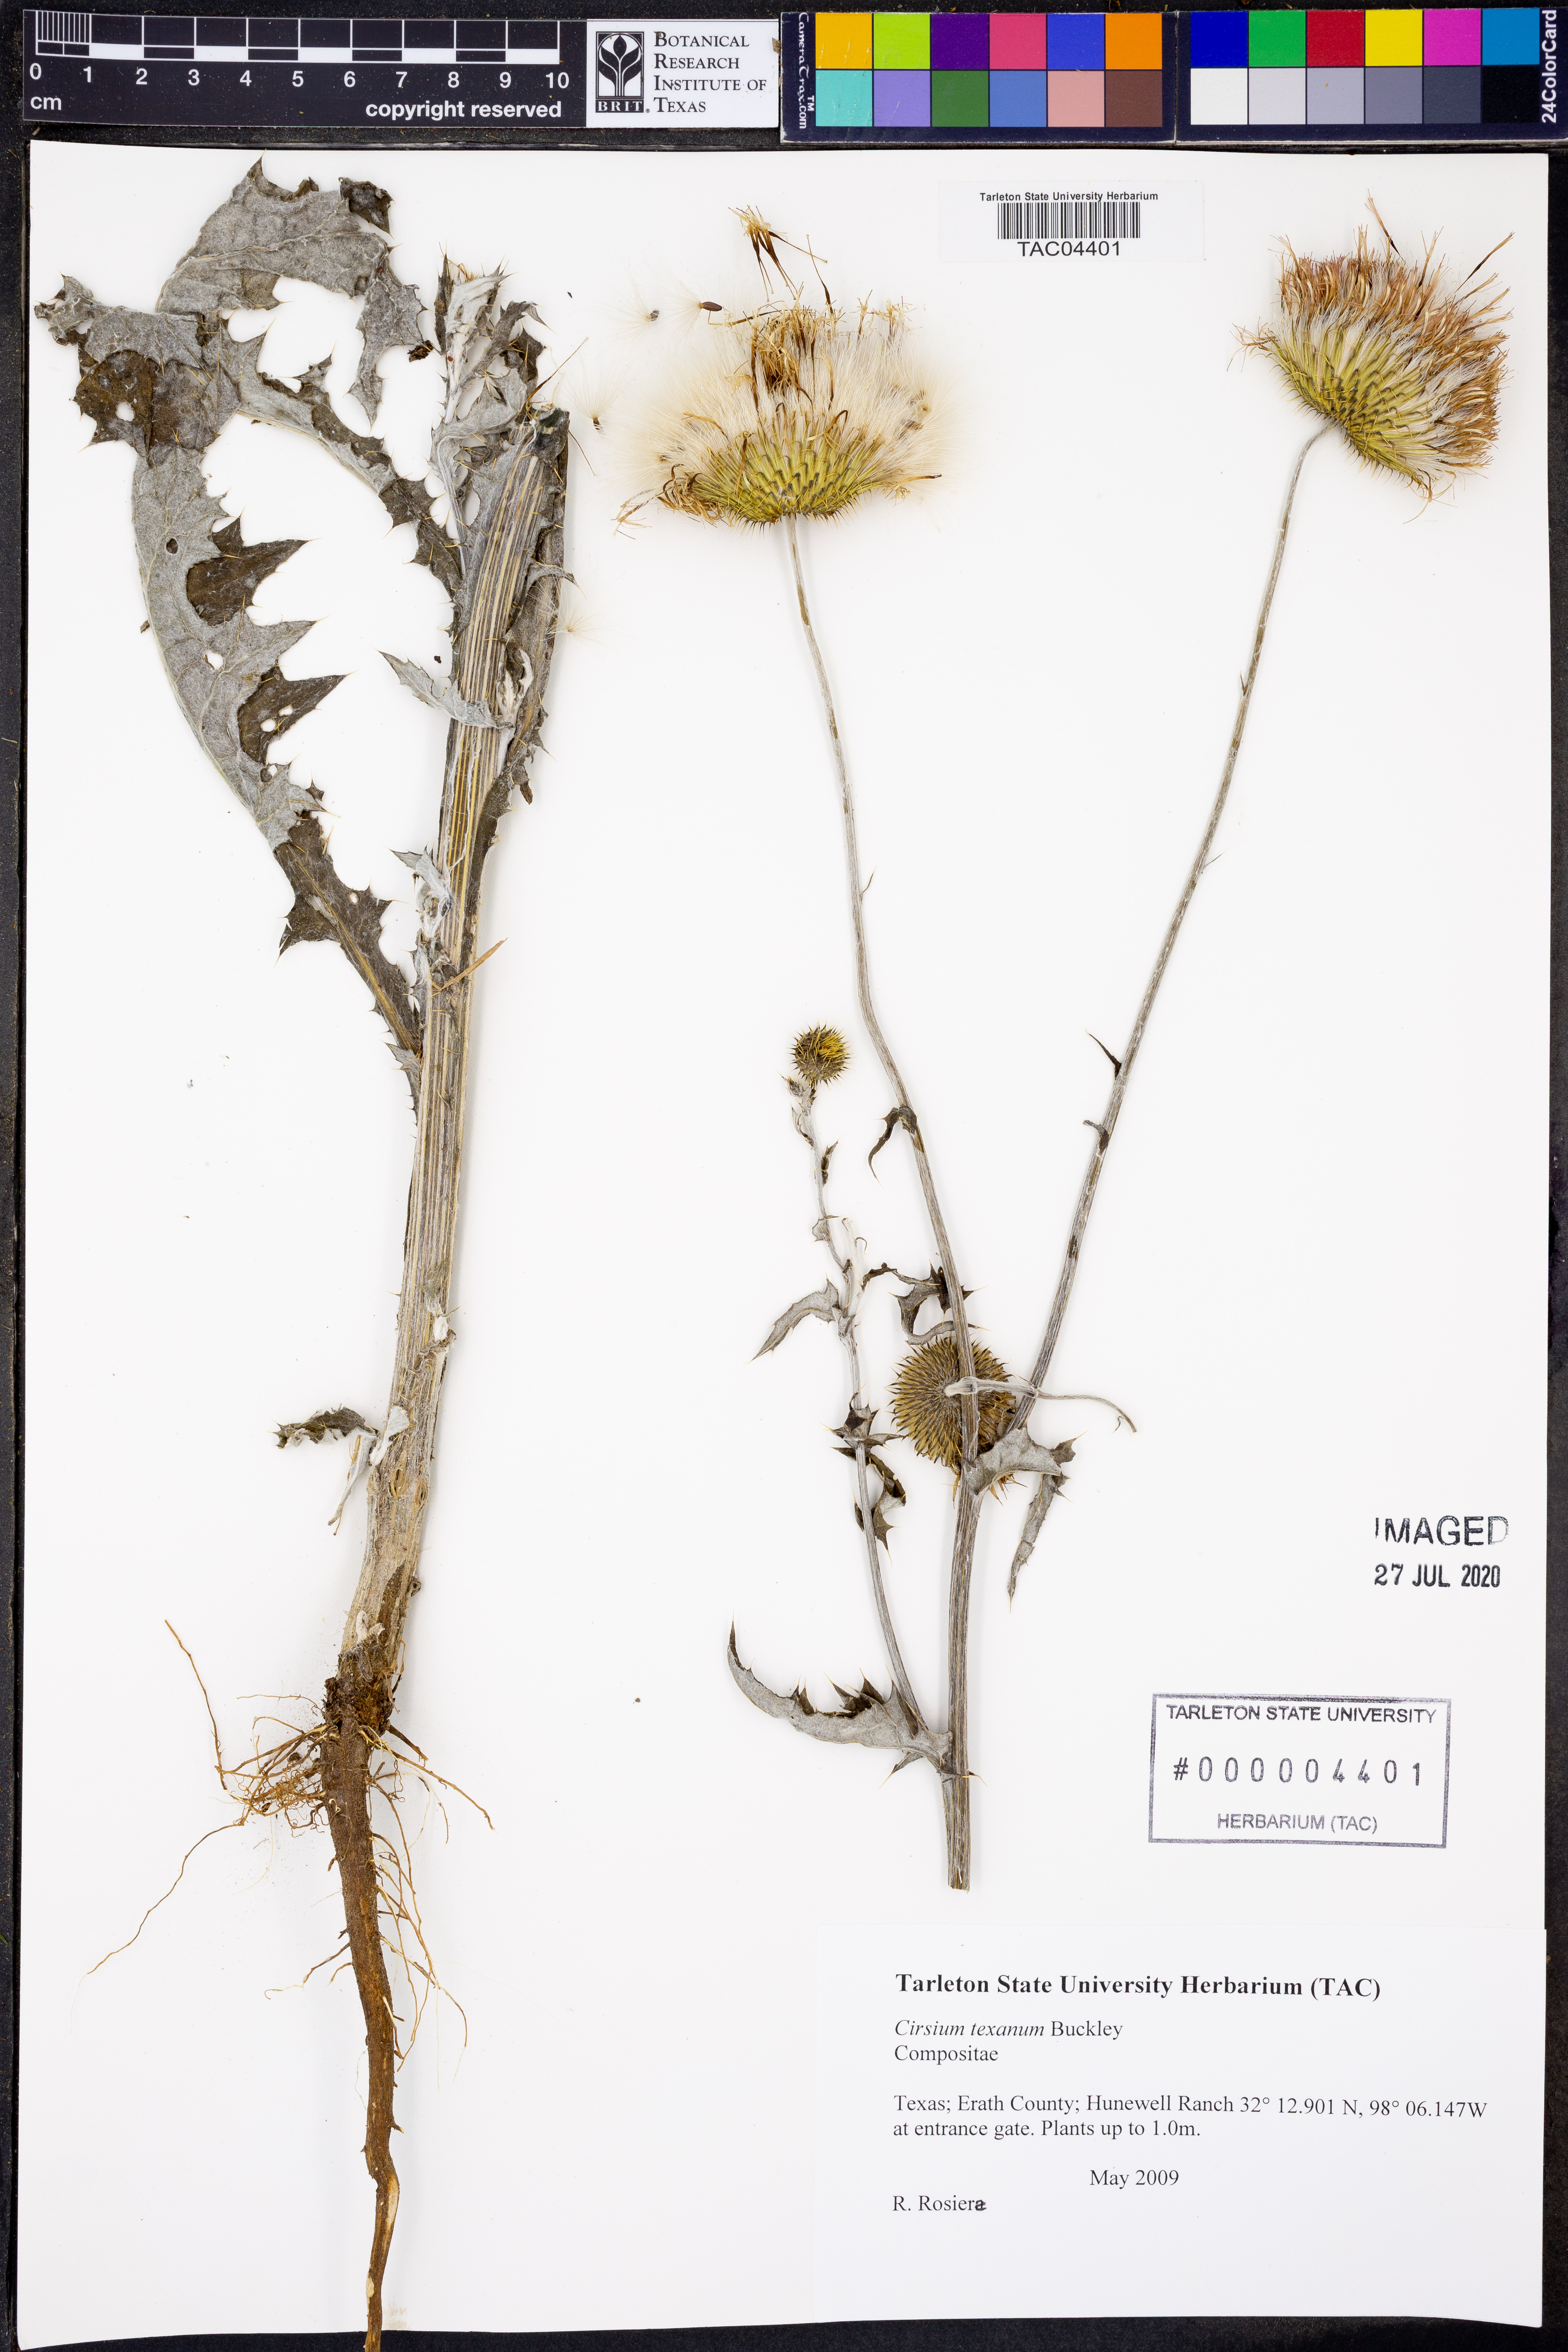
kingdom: Plantae
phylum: Tracheophyta
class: Magnoliopsida
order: Asterales
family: Asteraceae
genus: Cirsium
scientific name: Cirsium texanum
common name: Texas purple thistle
